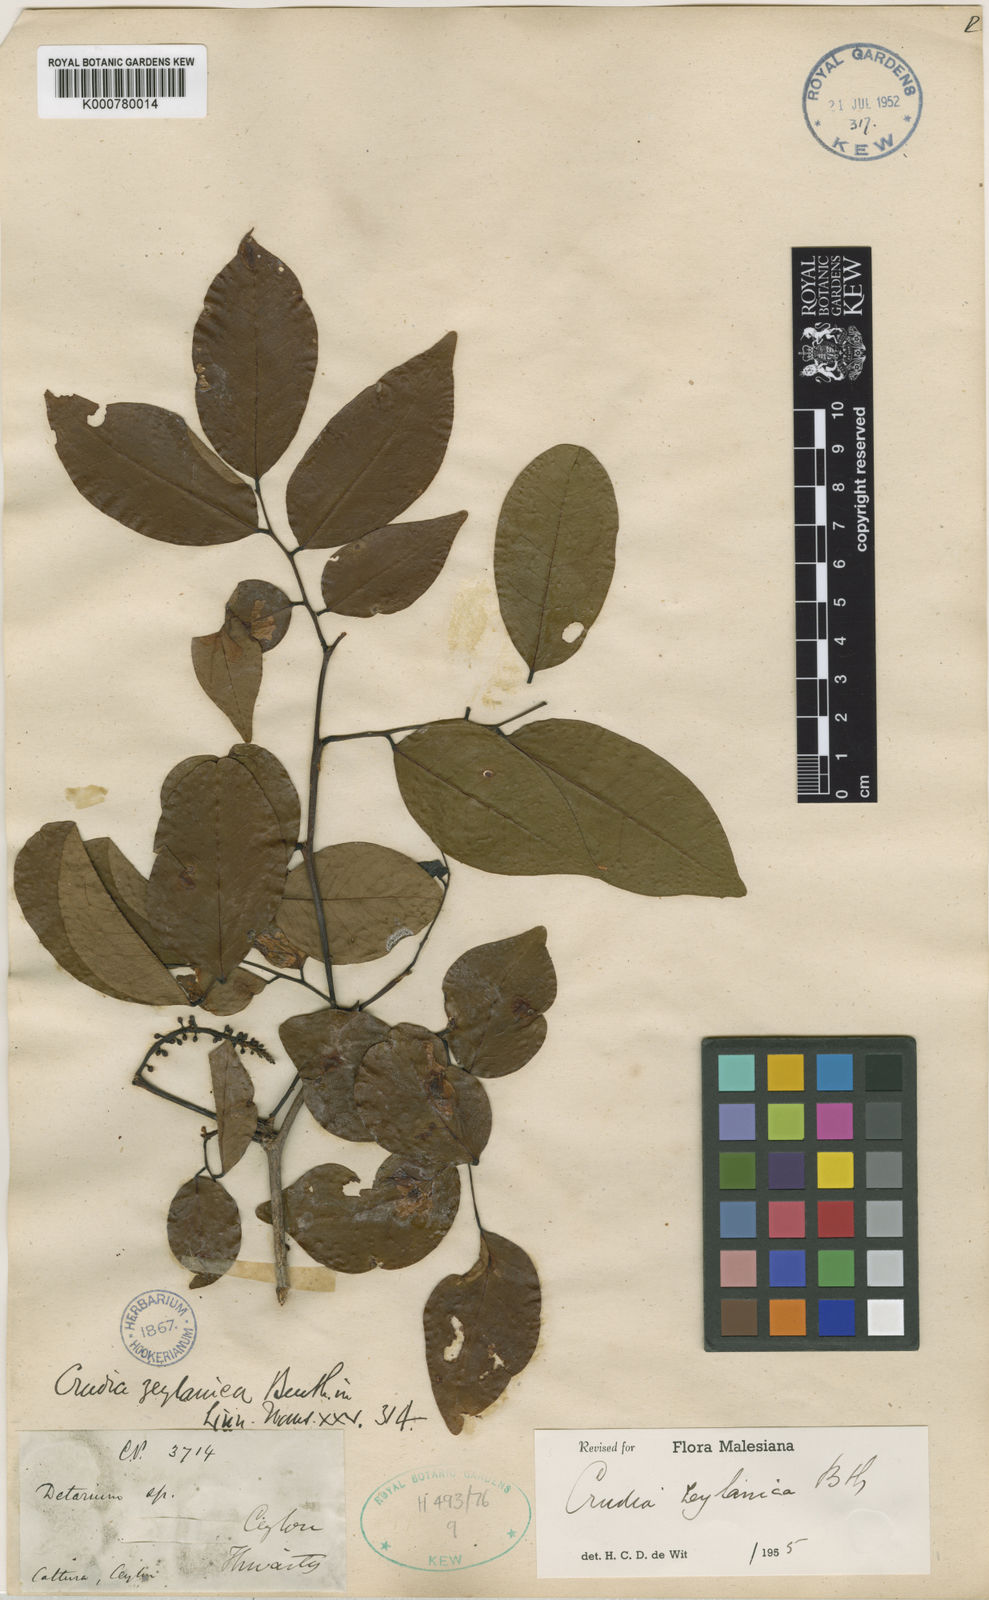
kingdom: Plantae
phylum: Tracheophyta
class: Magnoliopsida
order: Fabales
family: Fabaceae
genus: Crudia
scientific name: Crudia zeylanica
